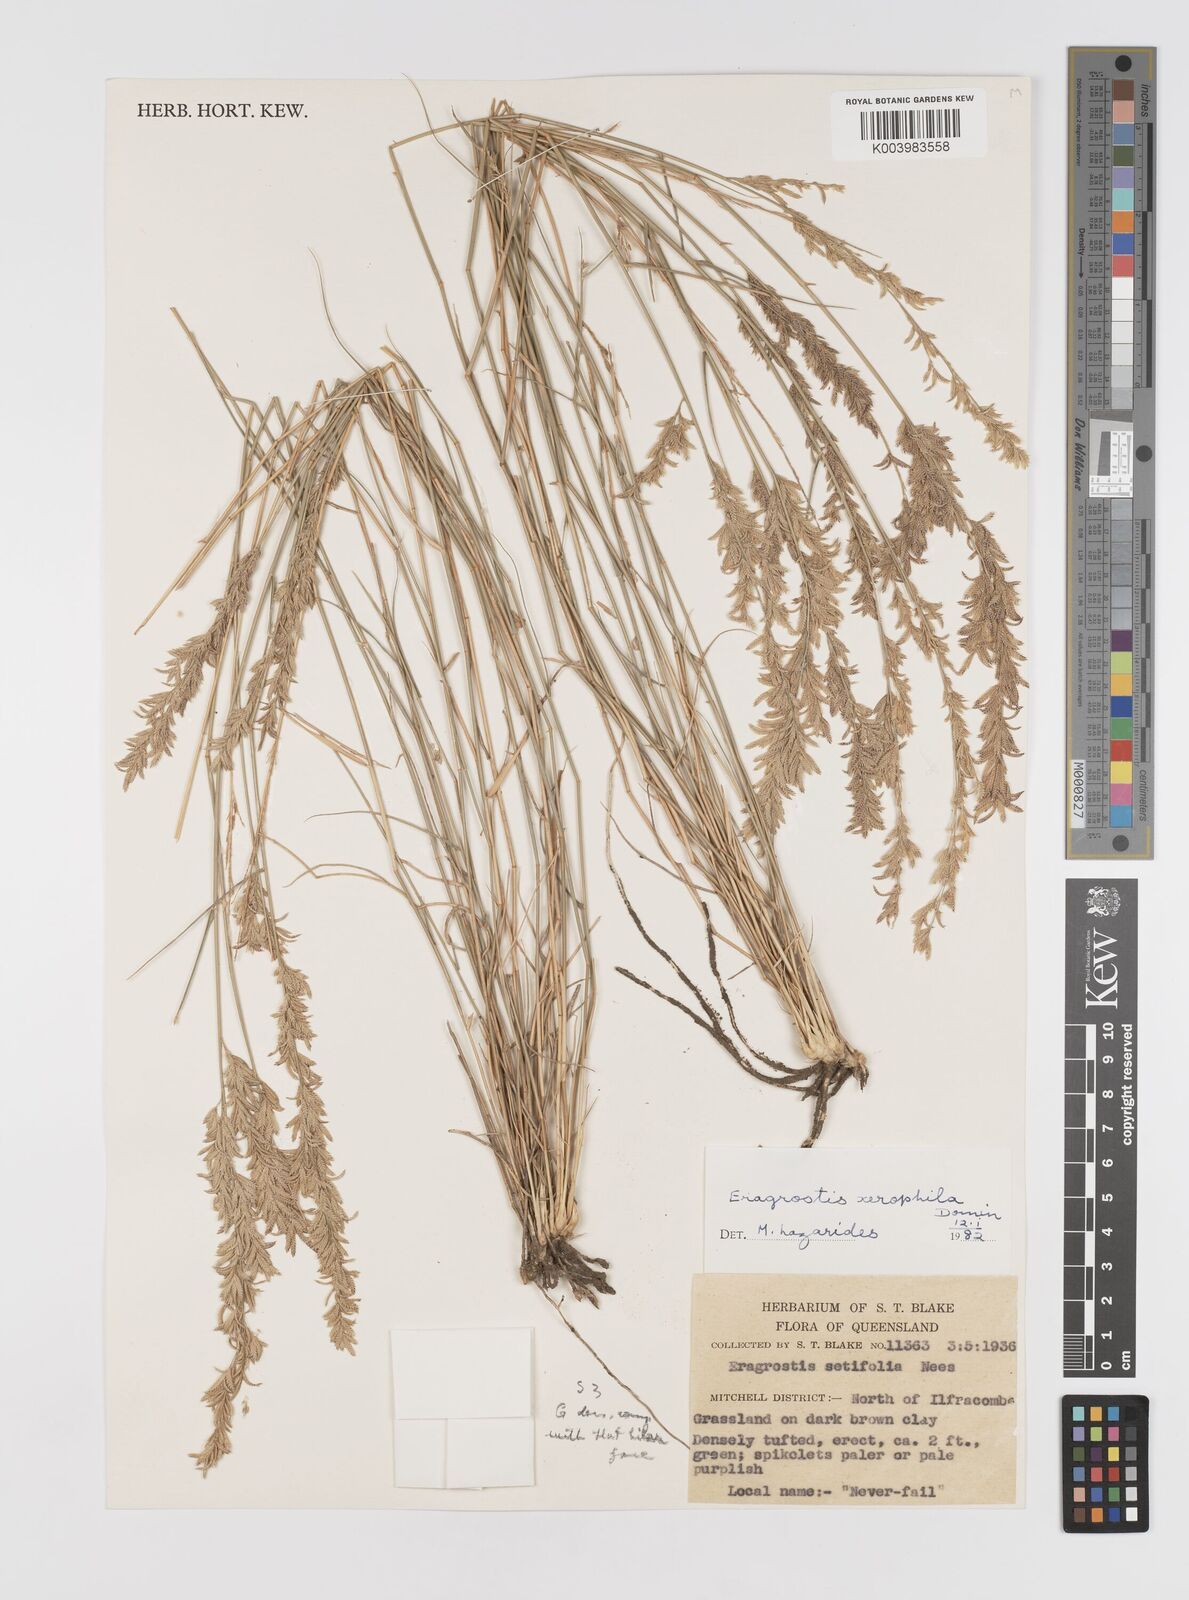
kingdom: Plantae
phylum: Tracheophyta
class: Liliopsida
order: Poales
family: Poaceae
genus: Eragrostis
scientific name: Eragrostis xerophila
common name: Wire wandarrie grass
